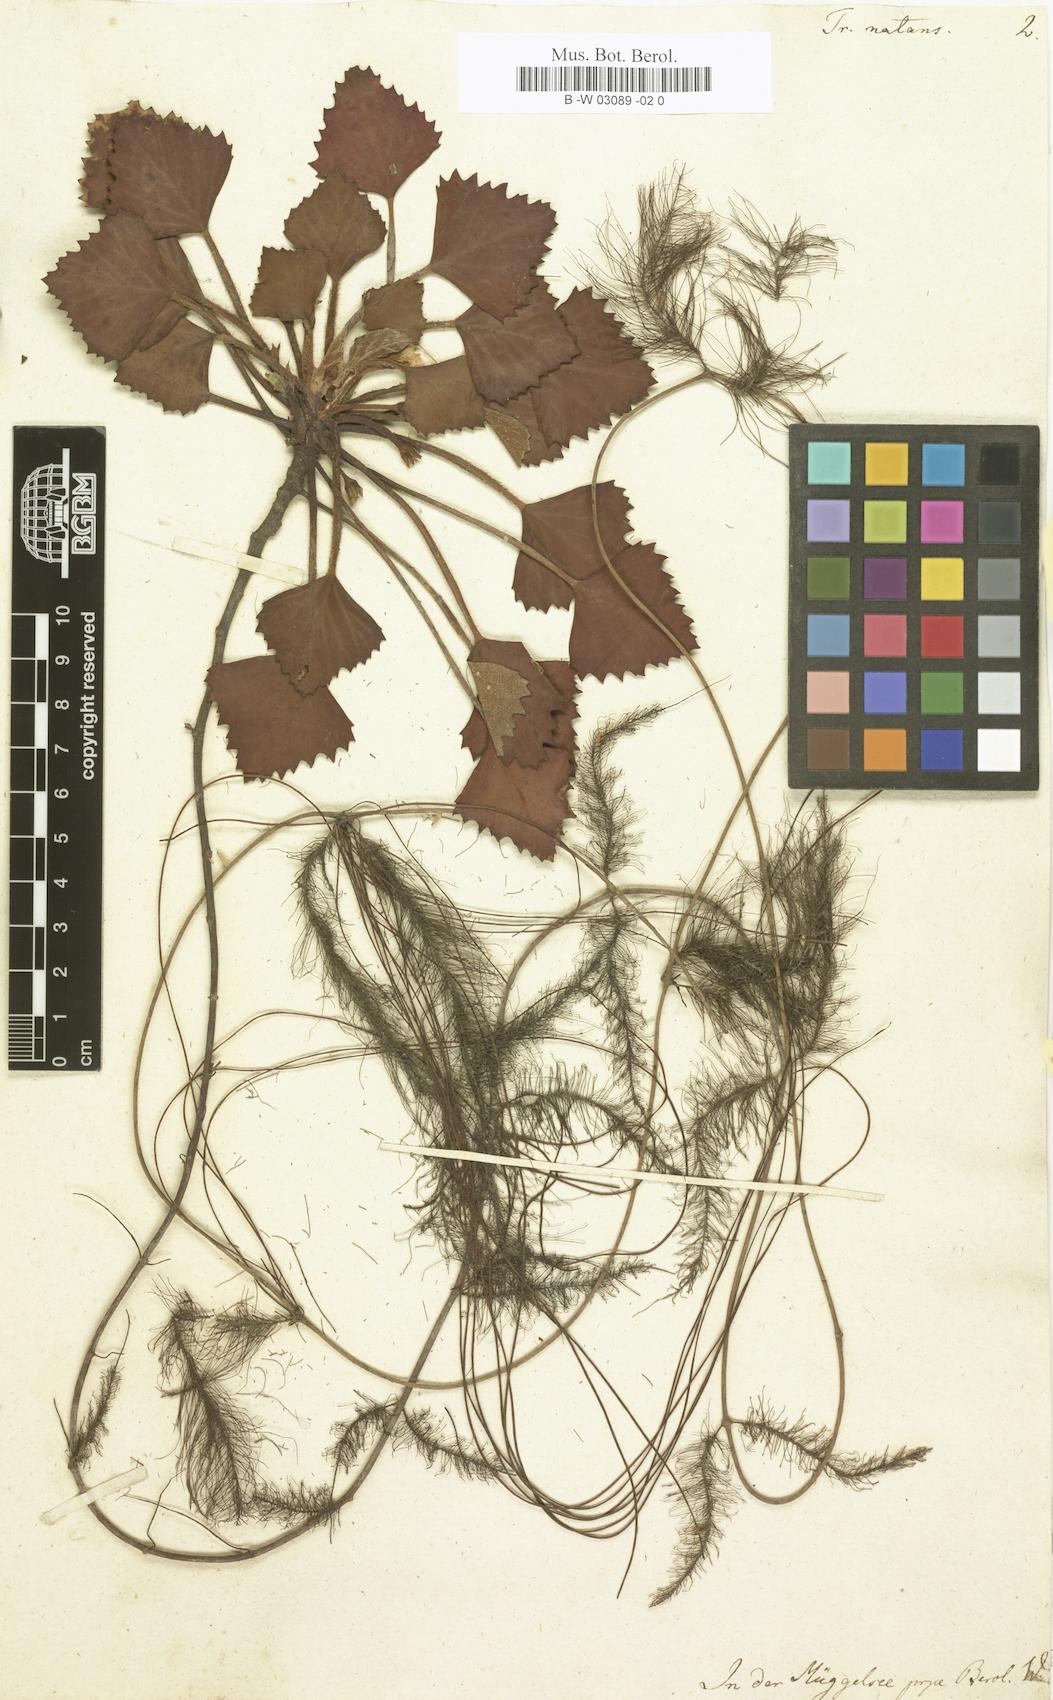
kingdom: Plantae
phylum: Tracheophyta
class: Magnoliopsida
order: Myrtales
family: Lythraceae
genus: Trapa
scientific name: Trapa natans
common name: Water chestnut
